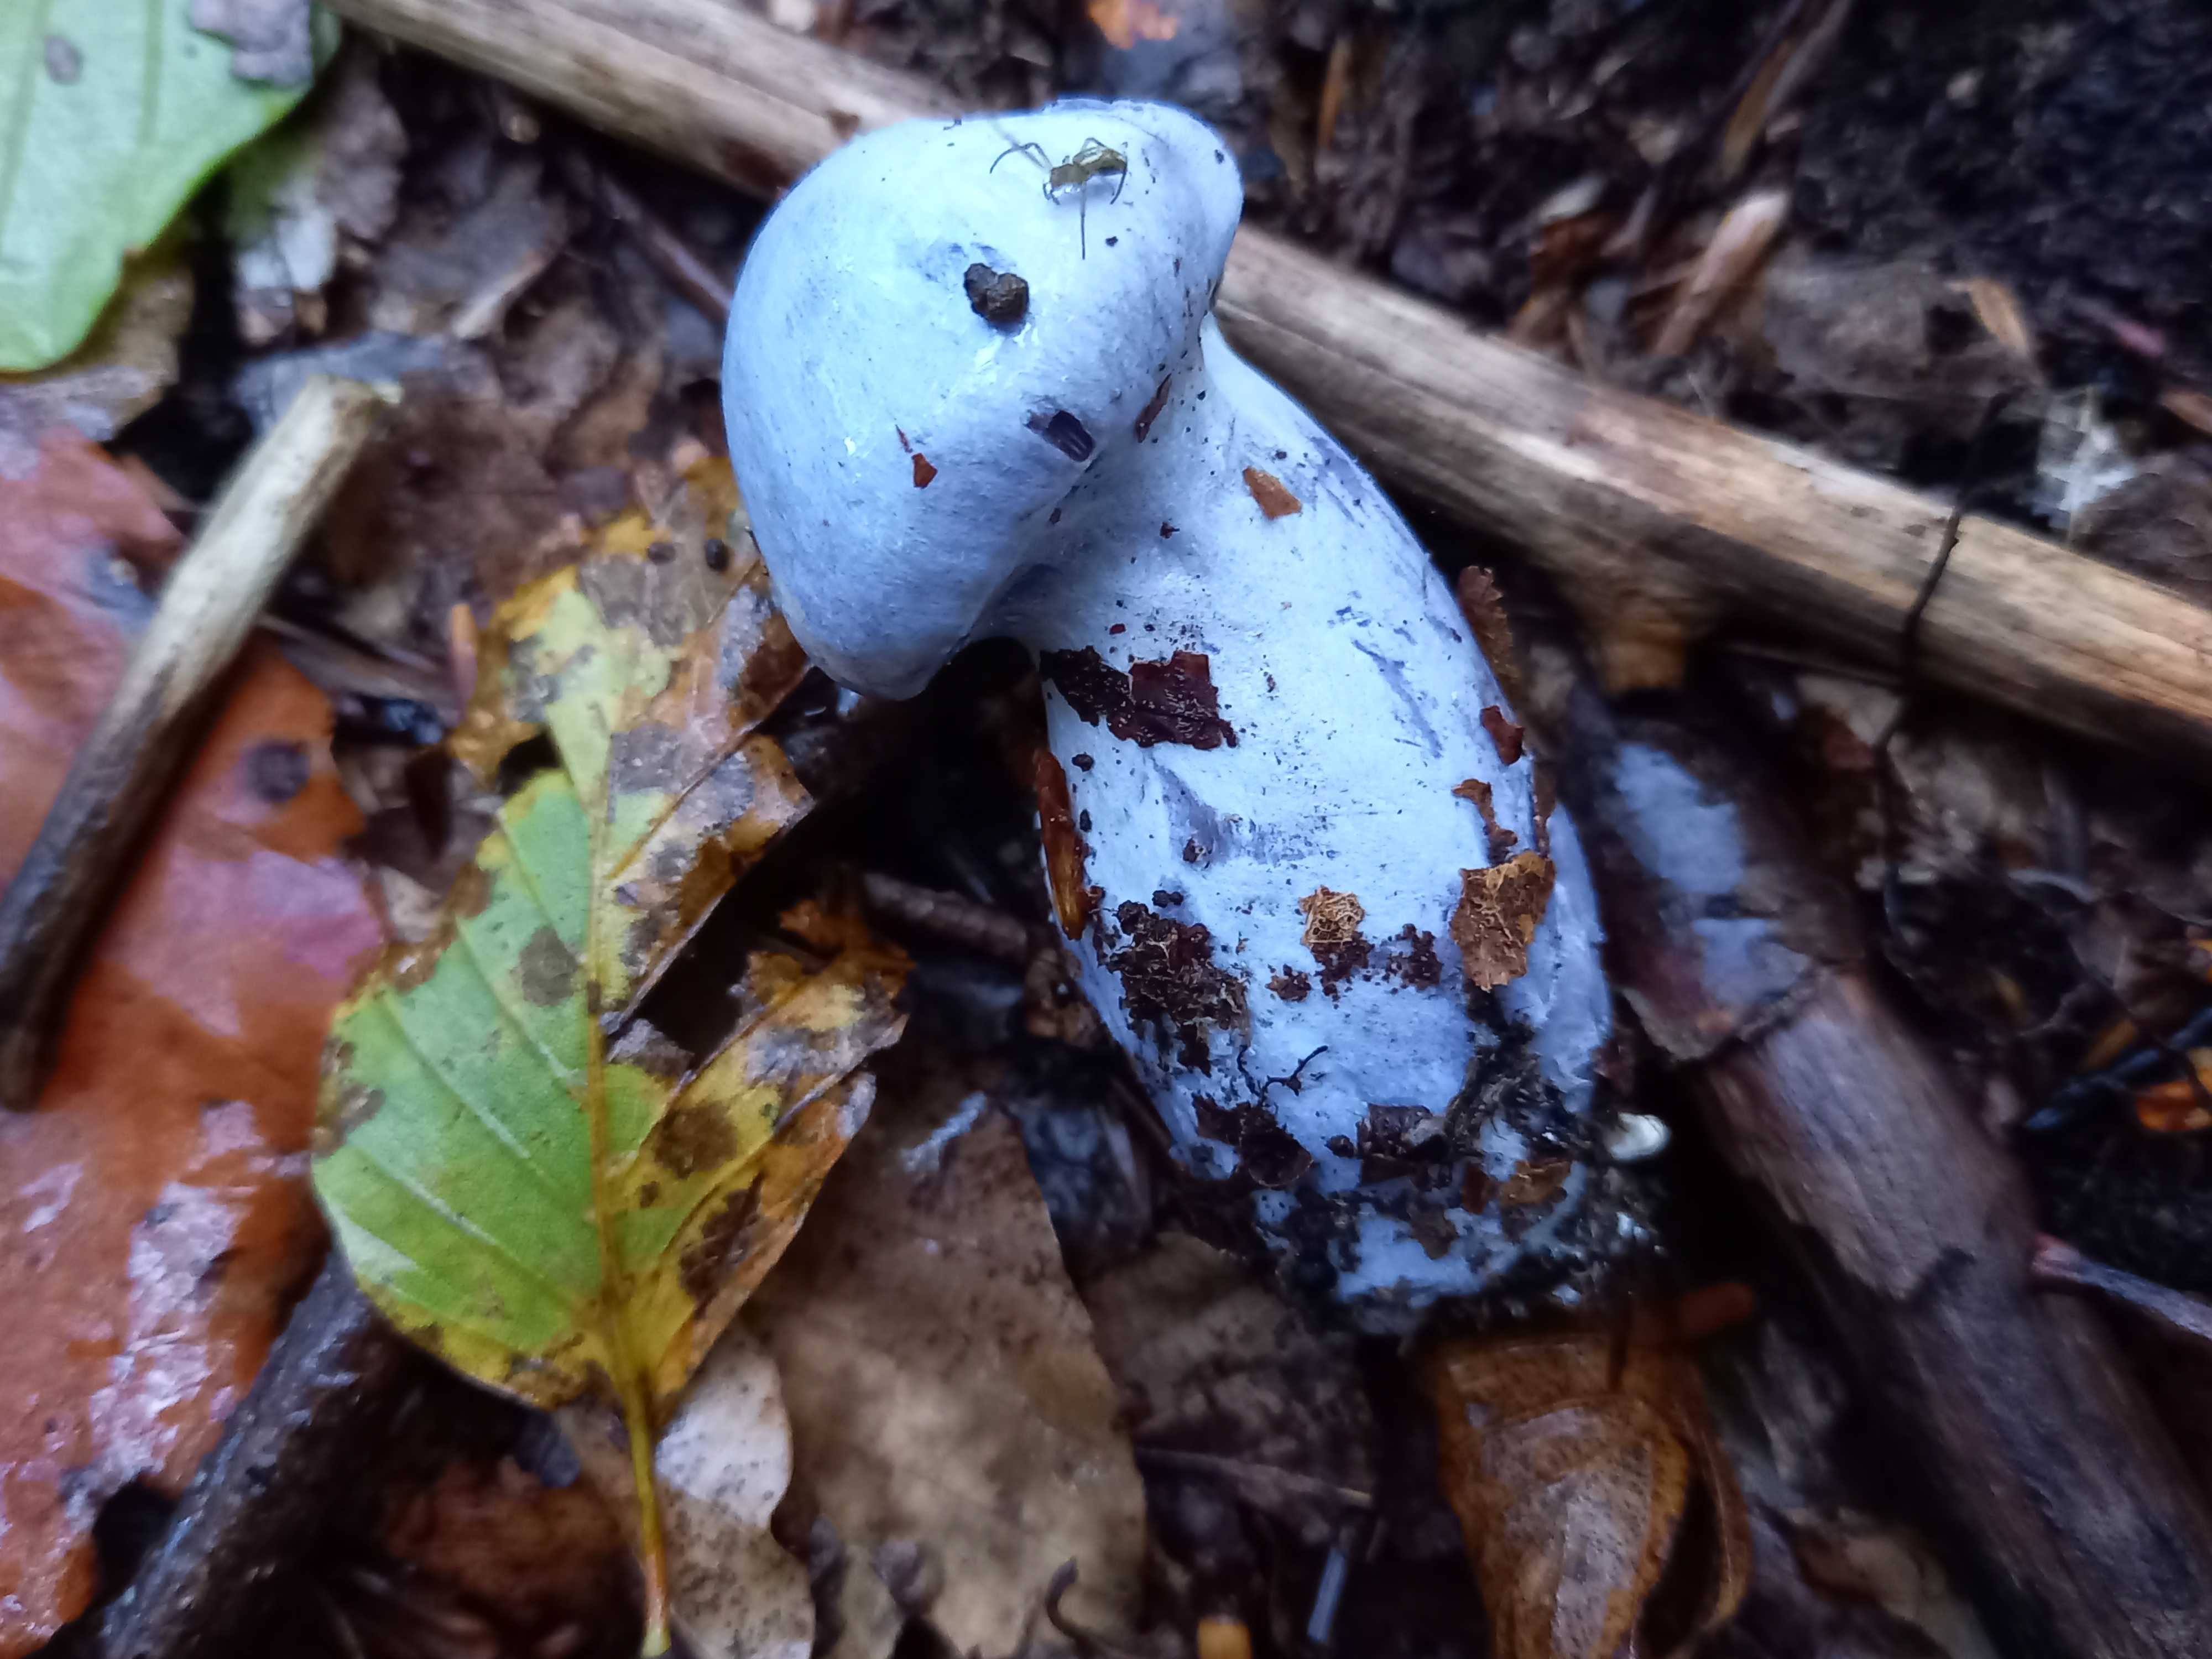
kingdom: Fungi
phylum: Basidiomycota
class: Agaricomycetes
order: Agaricales
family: Cortinariaceae
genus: Cortinarius
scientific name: Cortinarius
